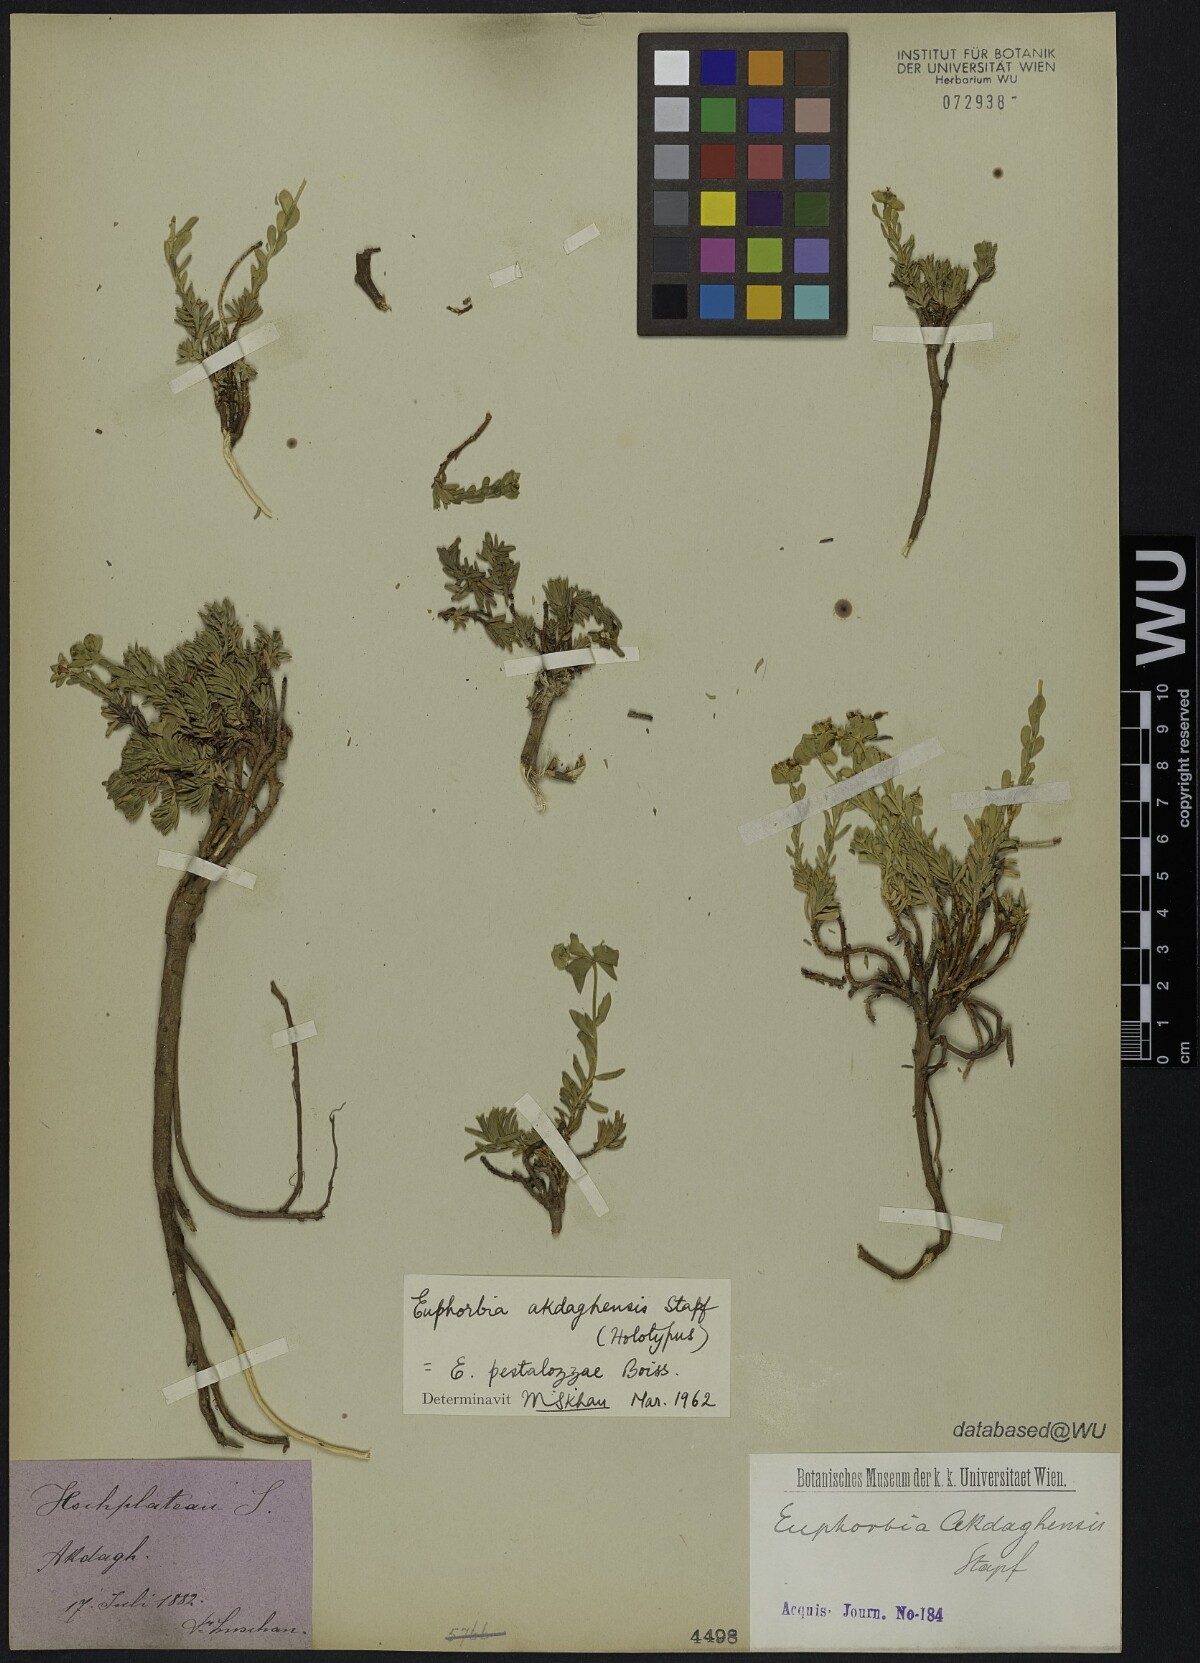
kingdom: Plantae
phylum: Tracheophyta
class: Magnoliopsida
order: Malpighiales
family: Euphorbiaceae
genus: Euphorbia
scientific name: Euphorbia pestalozzae
